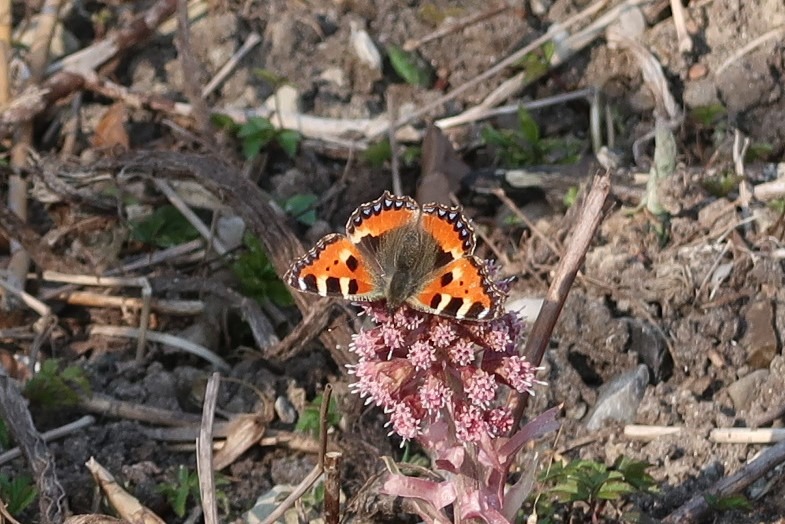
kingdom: Animalia
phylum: Arthropoda
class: Insecta
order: Lepidoptera
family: Nymphalidae
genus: Aglais
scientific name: Aglais urticae
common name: Nældens takvinge
